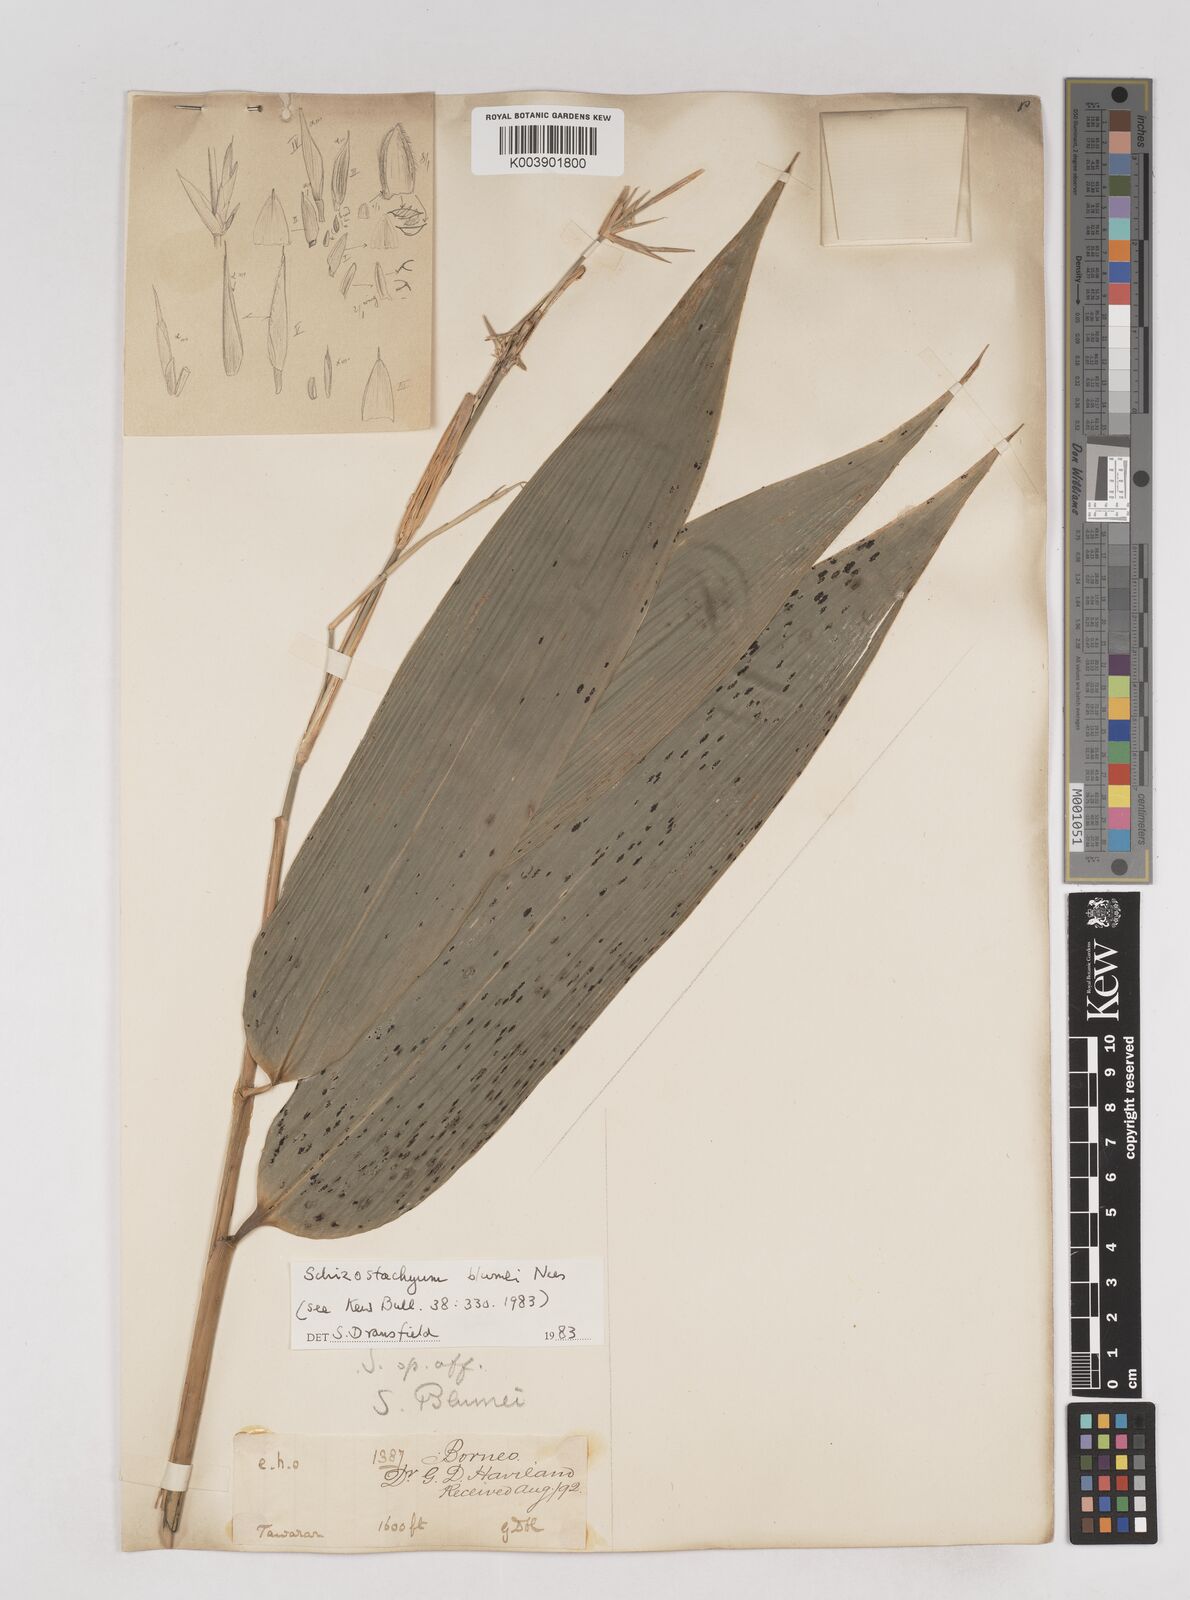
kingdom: Plantae
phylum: Tracheophyta
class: Liliopsida
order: Poales
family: Poaceae
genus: Schizostachyum
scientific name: Schizostachyum blumei
